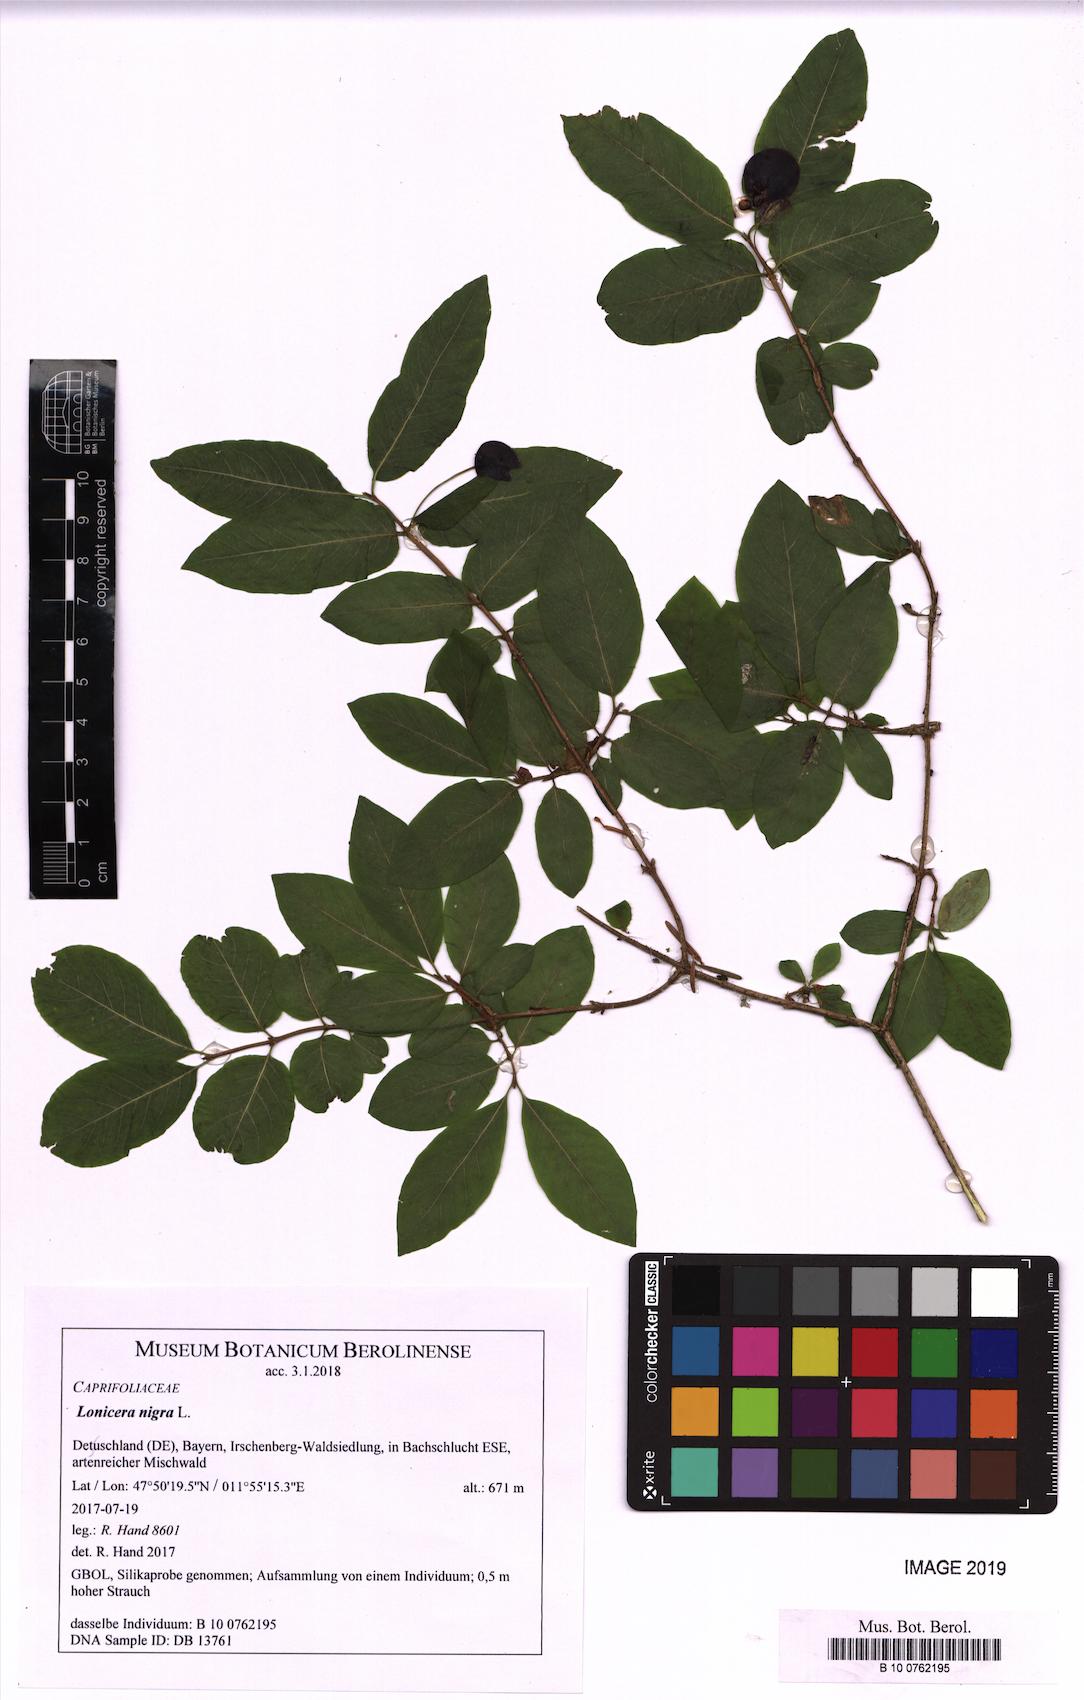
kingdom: Plantae
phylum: Tracheophyta
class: Magnoliopsida
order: Dipsacales
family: Caprifoliaceae
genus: Lonicera
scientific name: Lonicera iberica
